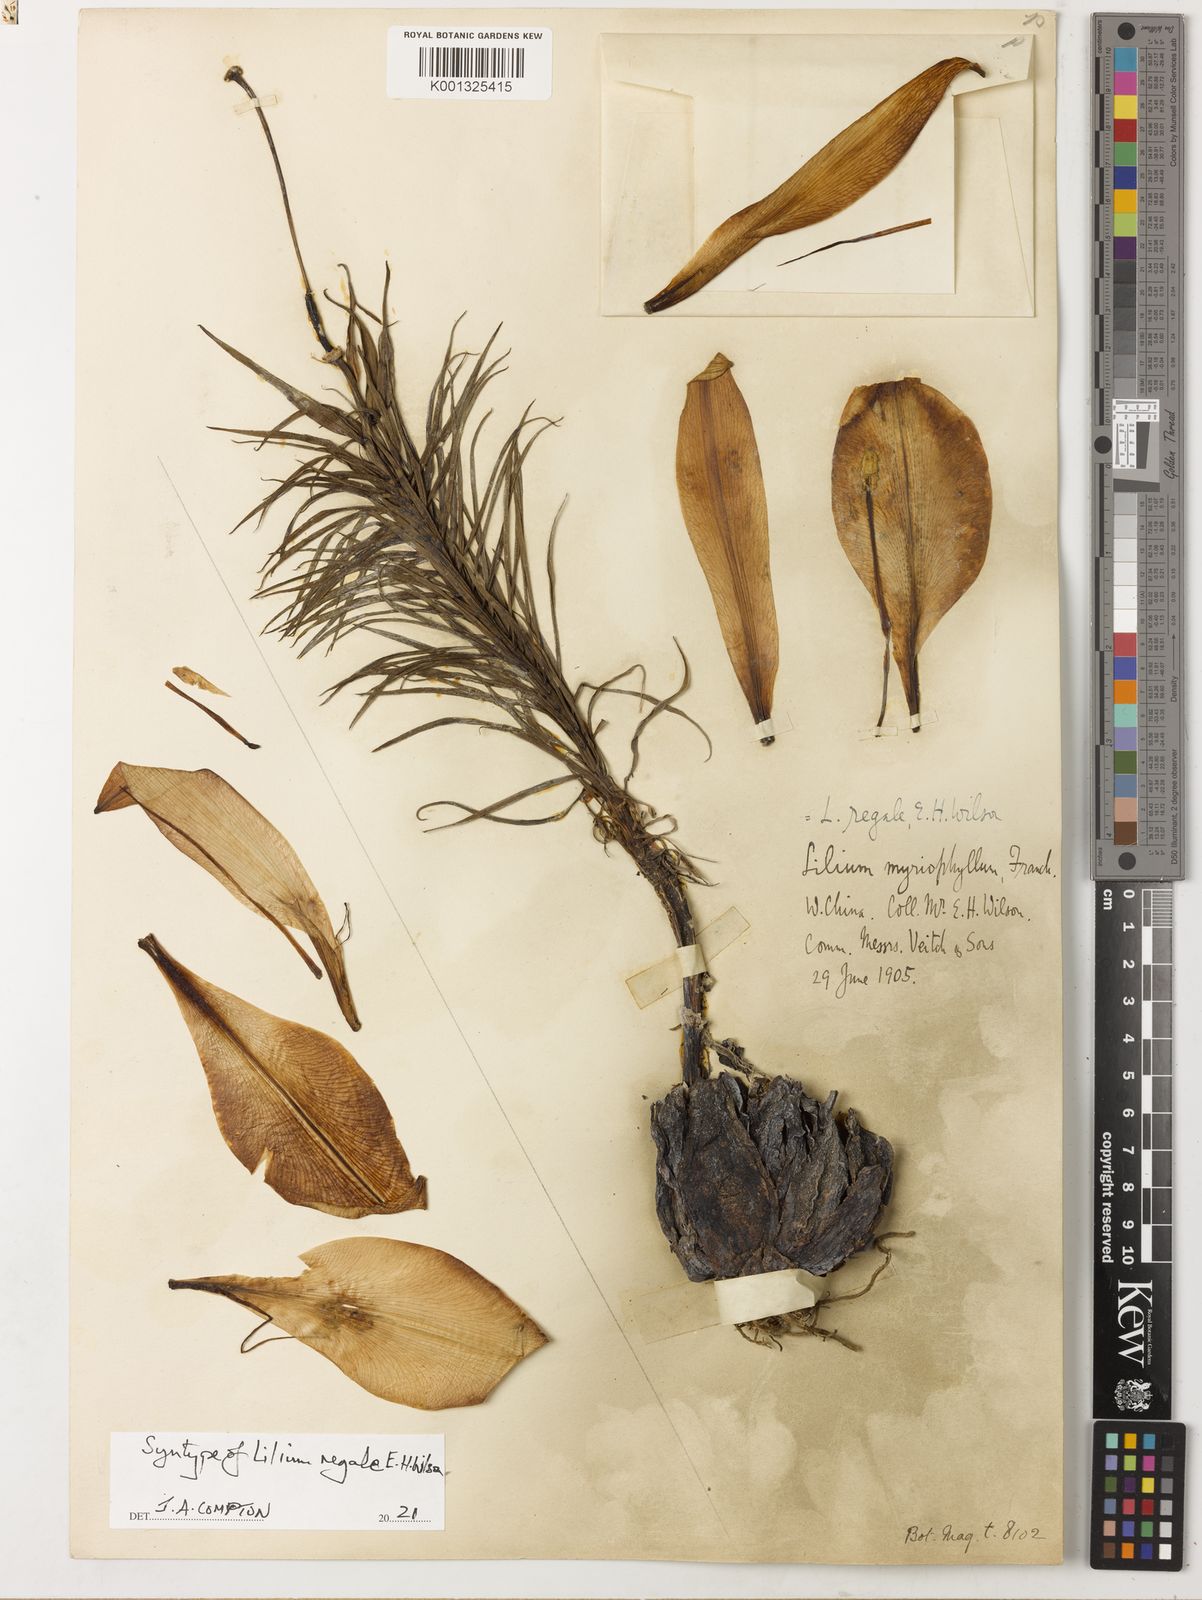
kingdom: Plantae
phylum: Tracheophyta
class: Liliopsida
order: Liliales
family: Liliaceae
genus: Lilium
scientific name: Lilium regale
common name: Regal lily
